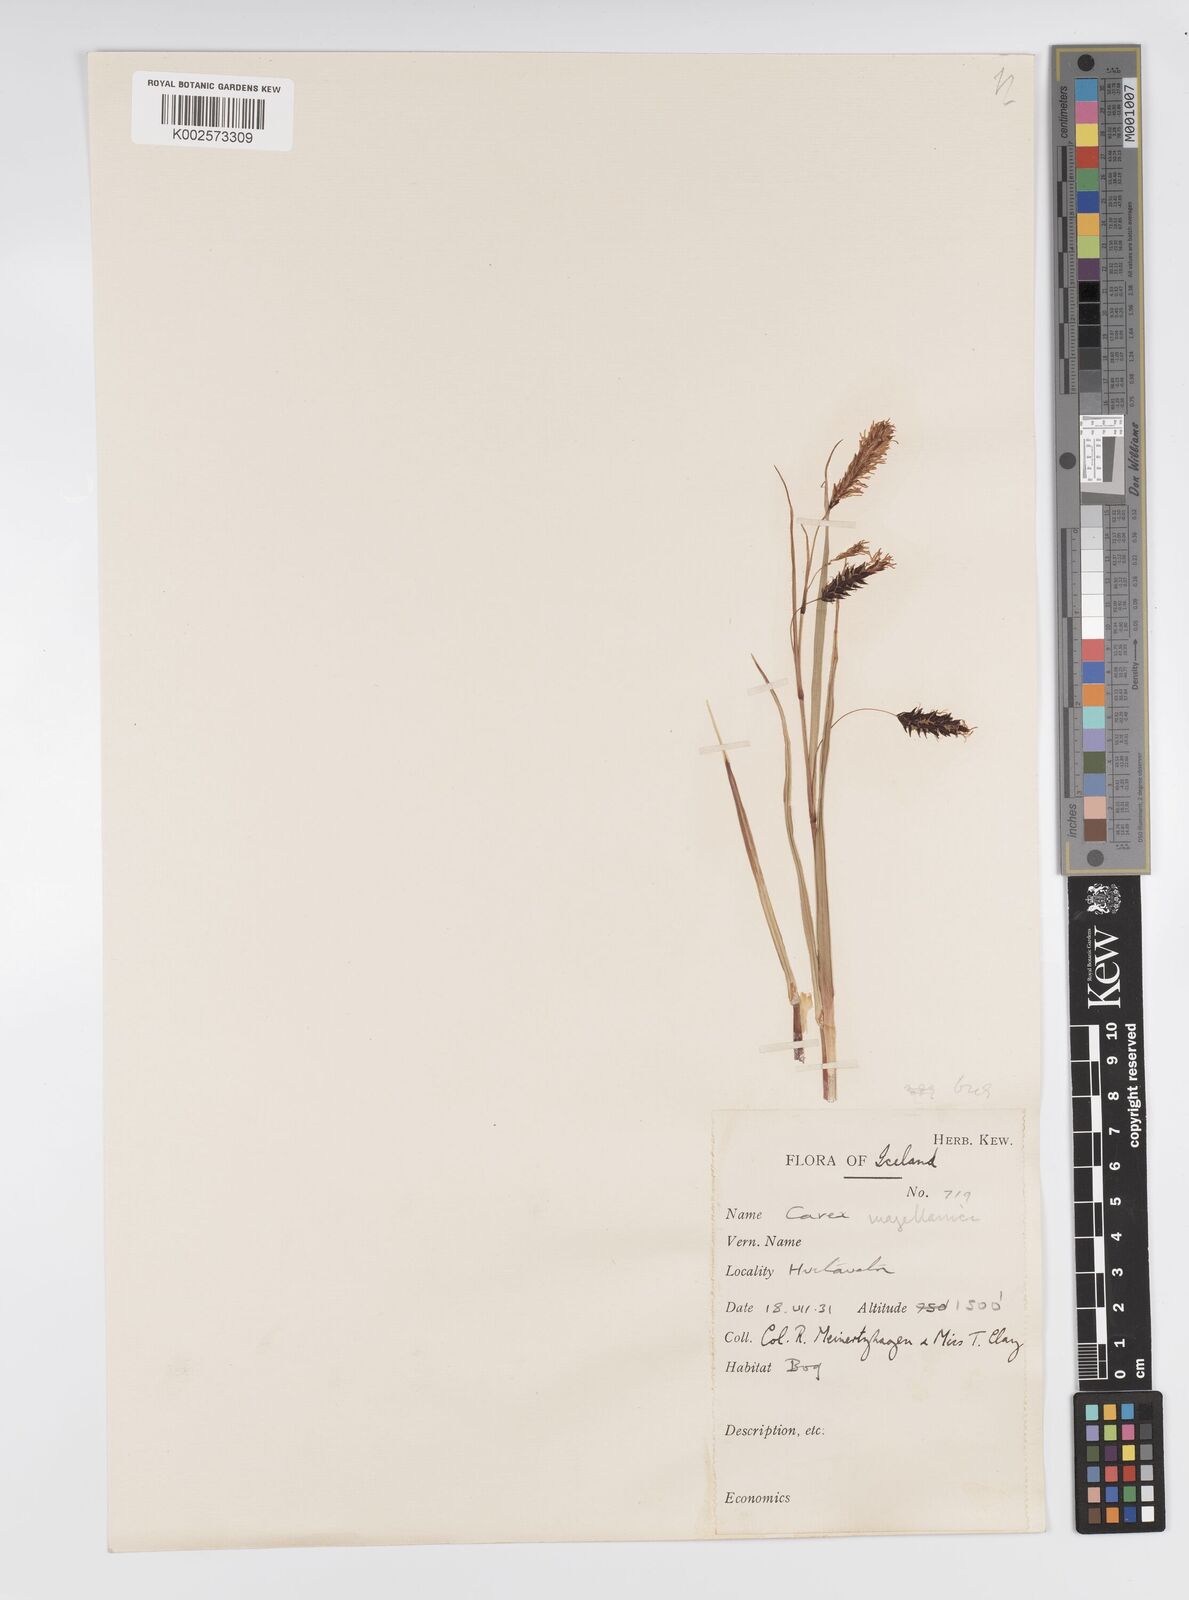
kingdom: Plantae
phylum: Tracheophyta
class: Liliopsida
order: Poales
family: Cyperaceae
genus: Carex
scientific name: Carex magellanica
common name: Bog sedge
